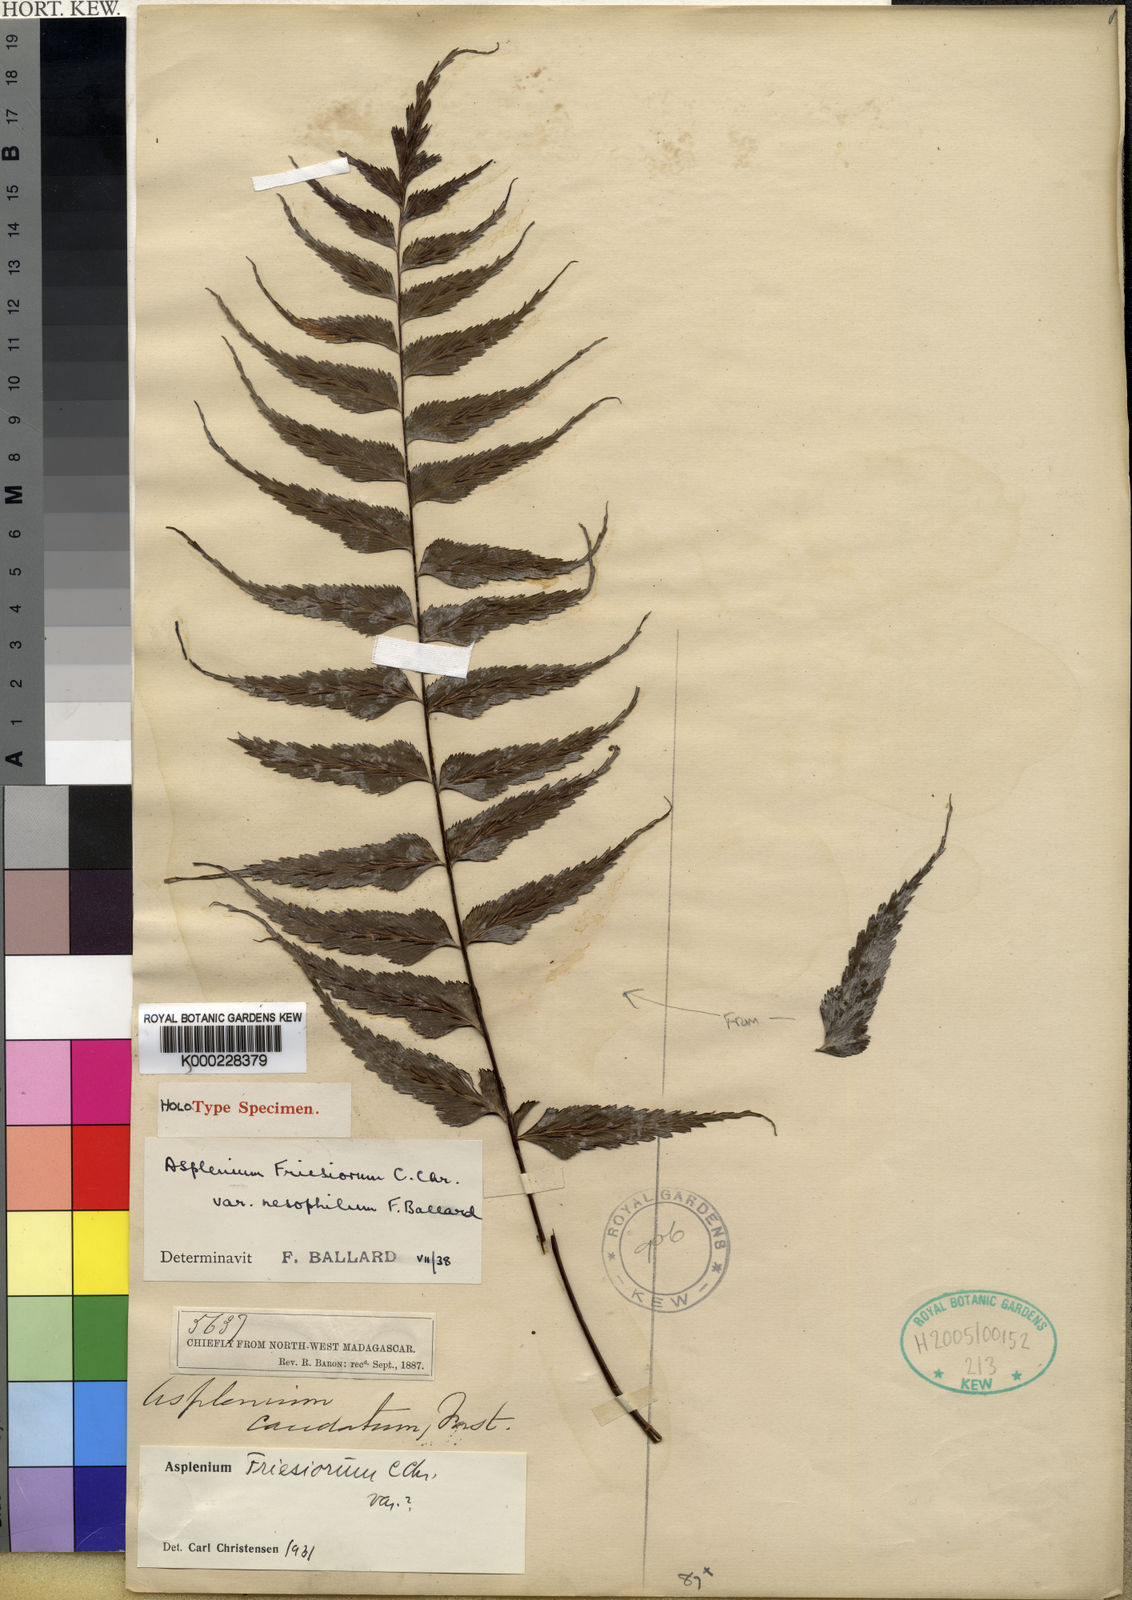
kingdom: Plantae
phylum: Tracheophyta
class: Polypodiopsida
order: Polypodiales
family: Aspleniaceae
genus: Asplenium
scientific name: Asplenium gueinzianum
